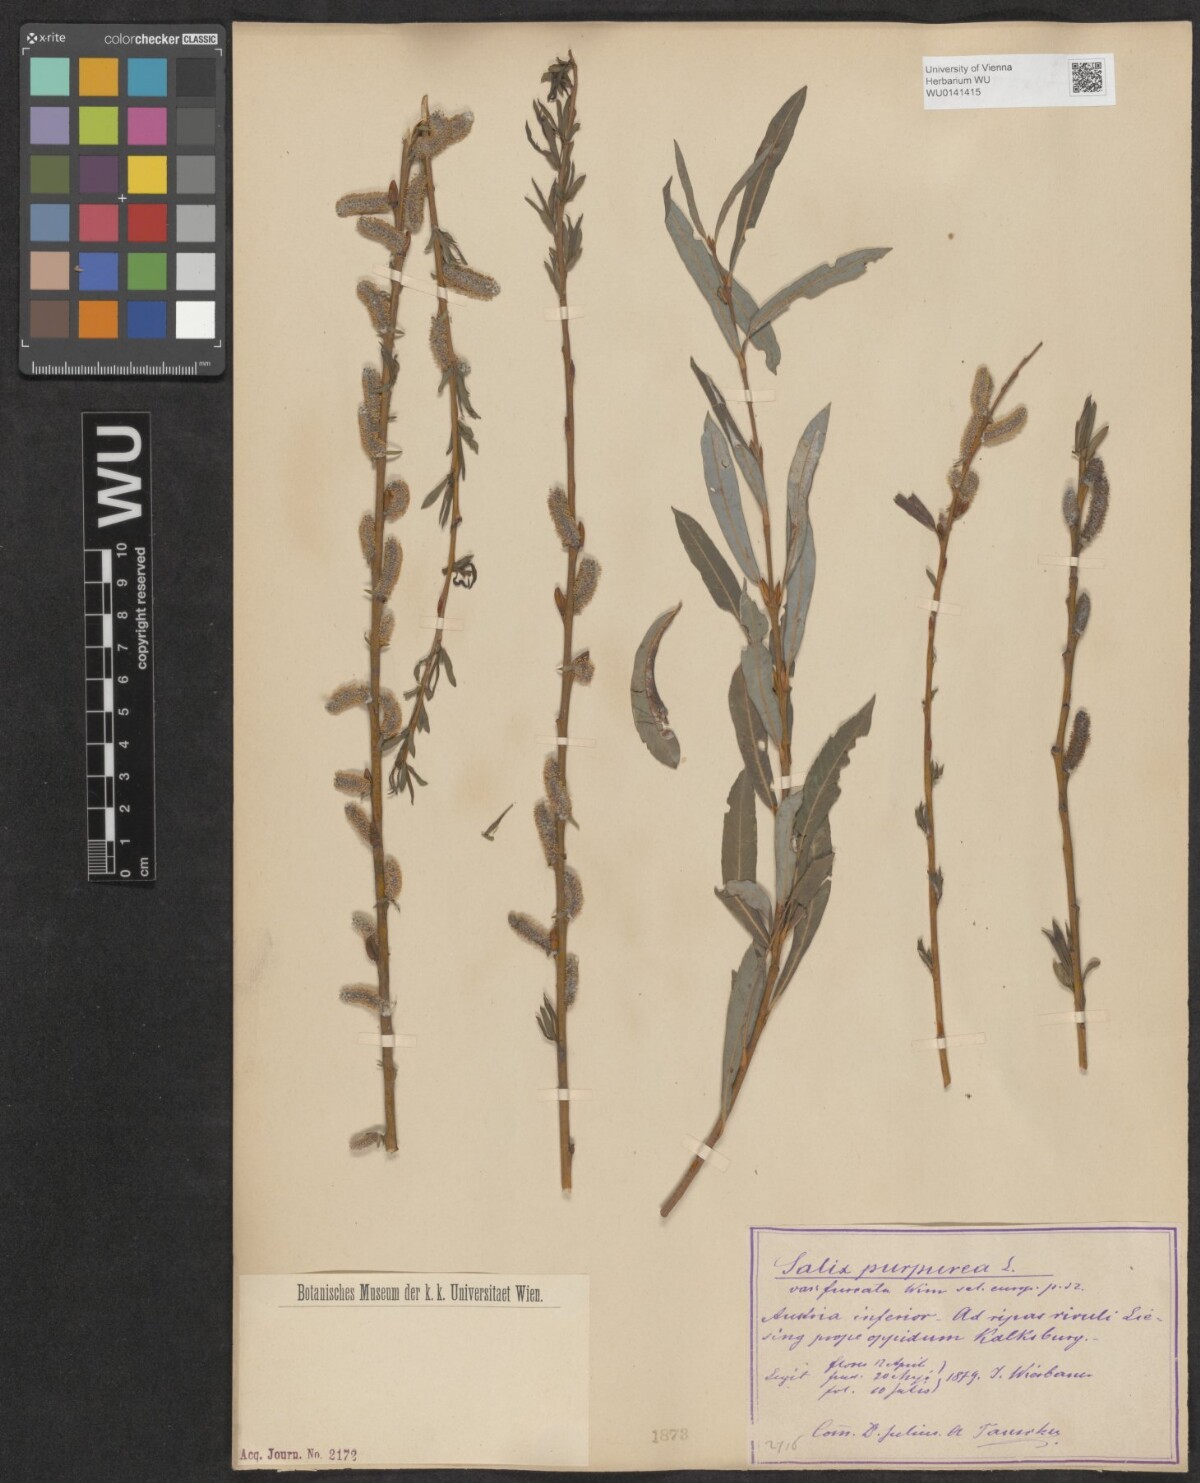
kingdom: Plantae
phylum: Tracheophyta
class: Magnoliopsida
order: Malpighiales
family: Salicaceae
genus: Salix
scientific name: Salix purpurea
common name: Purple willow
